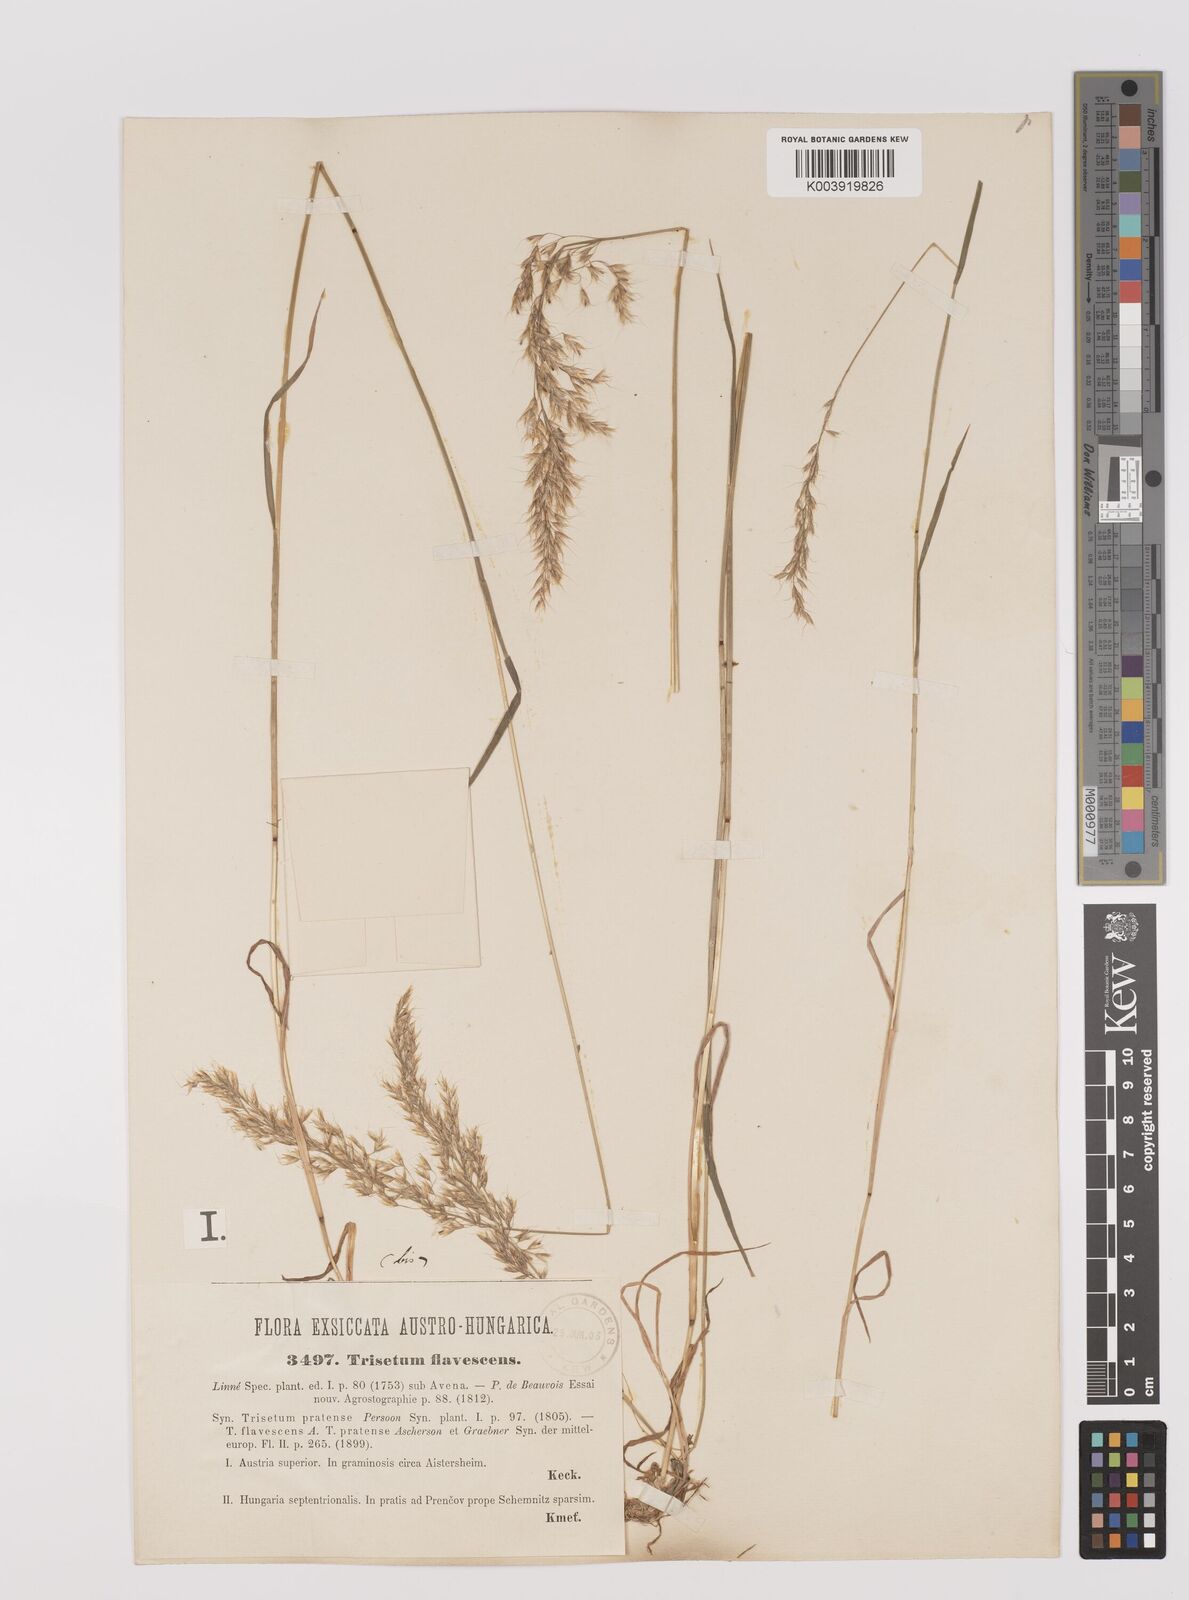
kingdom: Plantae
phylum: Tracheophyta
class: Liliopsida
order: Poales
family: Poaceae
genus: Trisetum
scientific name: Trisetum flavescens
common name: Yellow oat-grass
